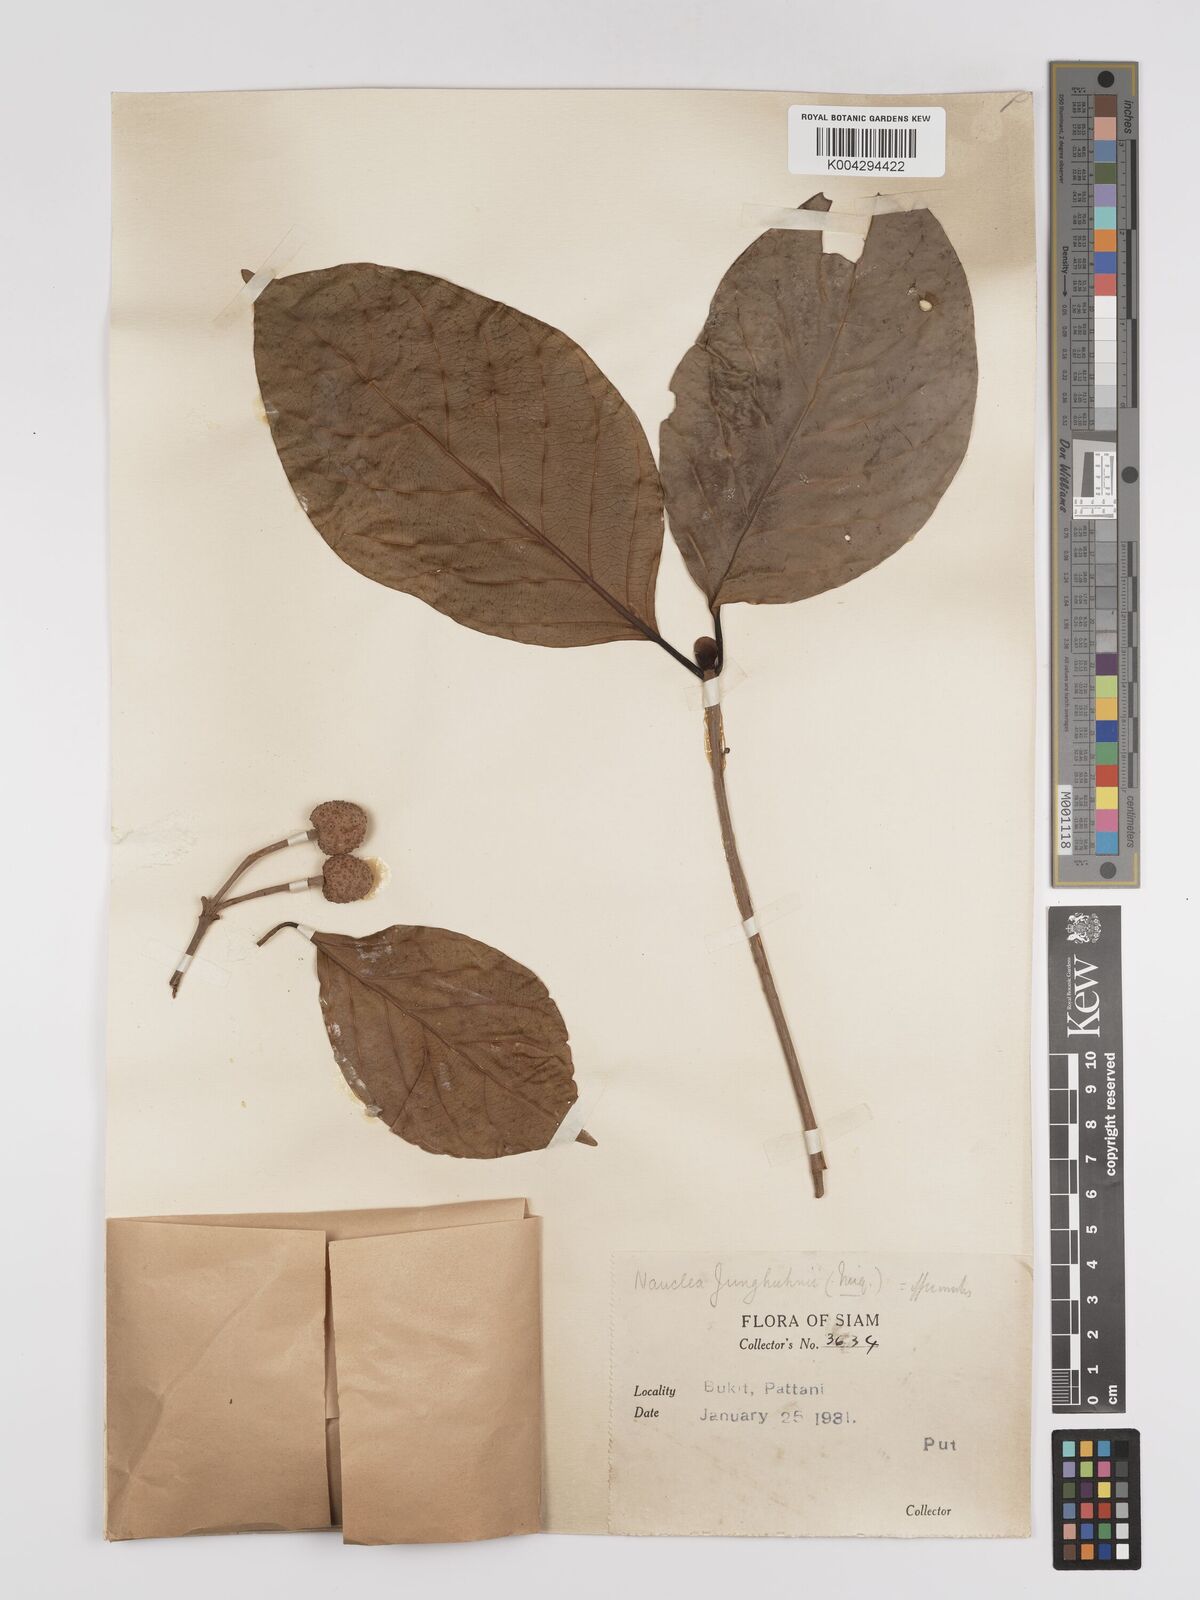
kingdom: Plantae
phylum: Tracheophyta
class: Magnoliopsida
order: Gentianales
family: Rubiaceae
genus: Nauclea
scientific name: Nauclea officinalis
